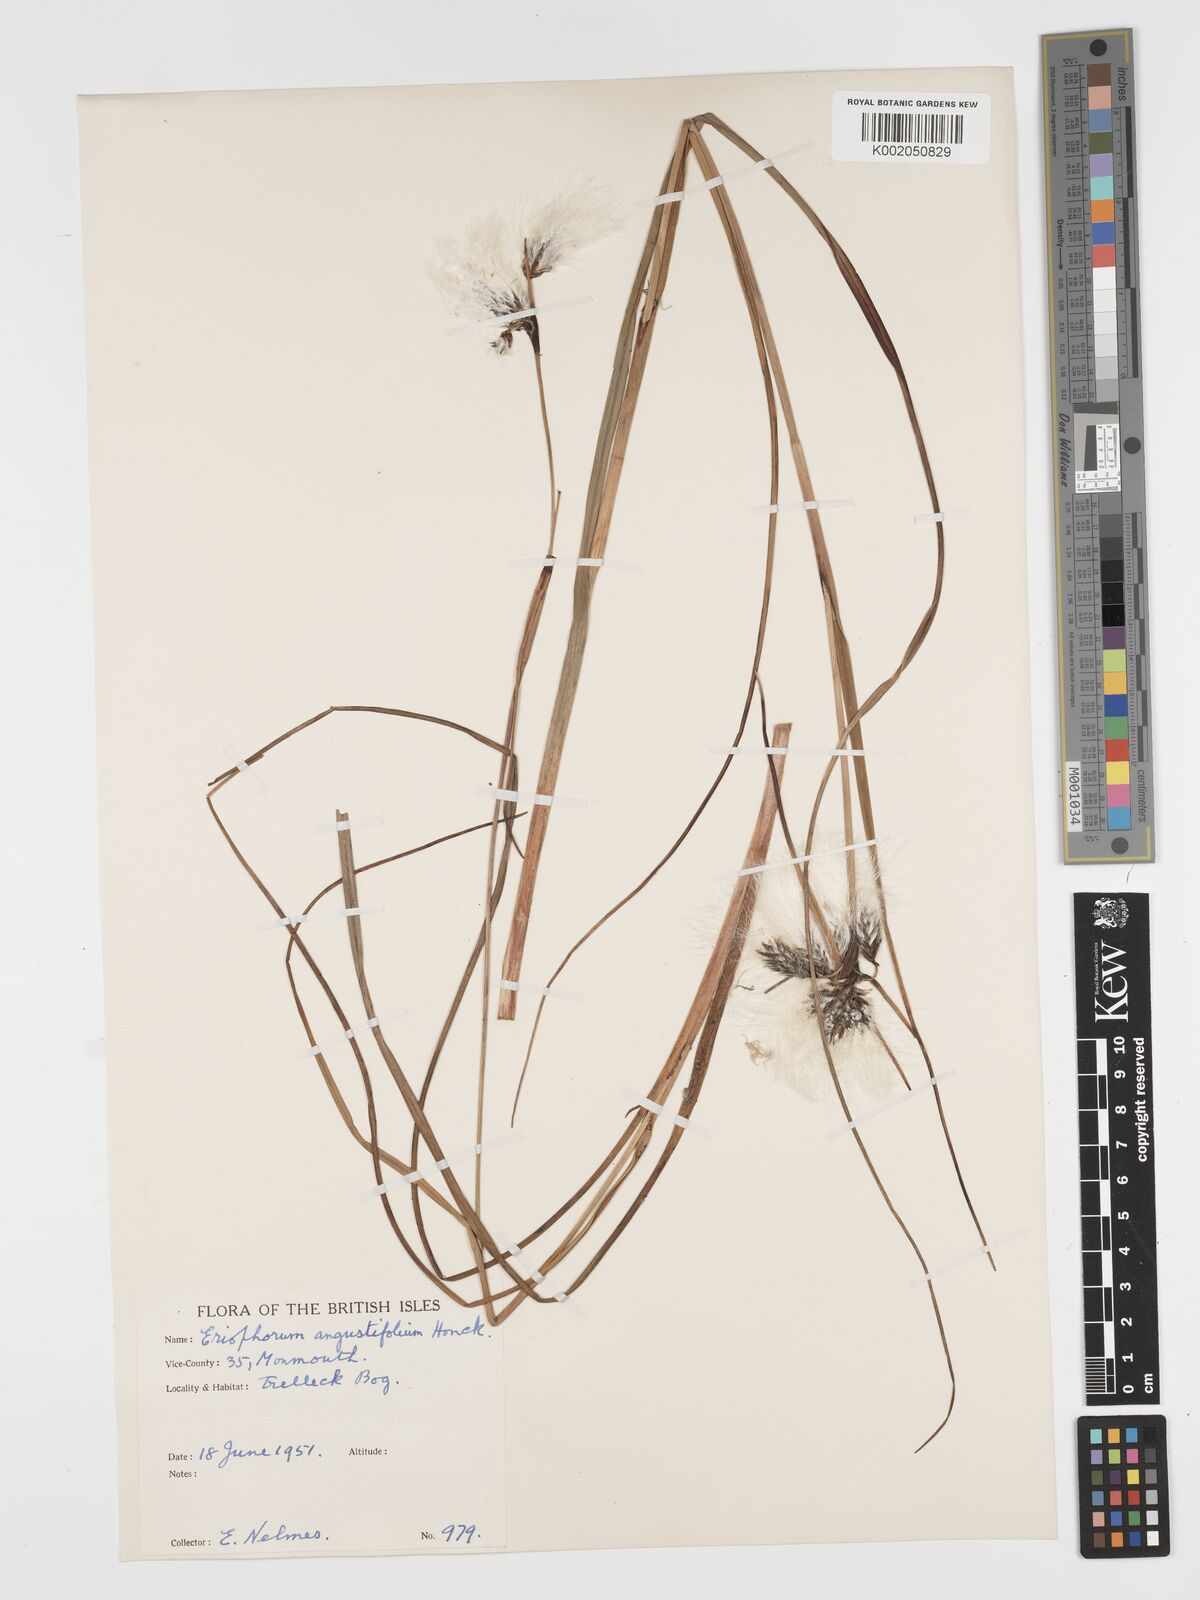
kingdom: Plantae
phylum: Tracheophyta
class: Liliopsida
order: Poales
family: Cyperaceae
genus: Eriophorum
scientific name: Eriophorum angustifolium
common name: Common cottongrass
